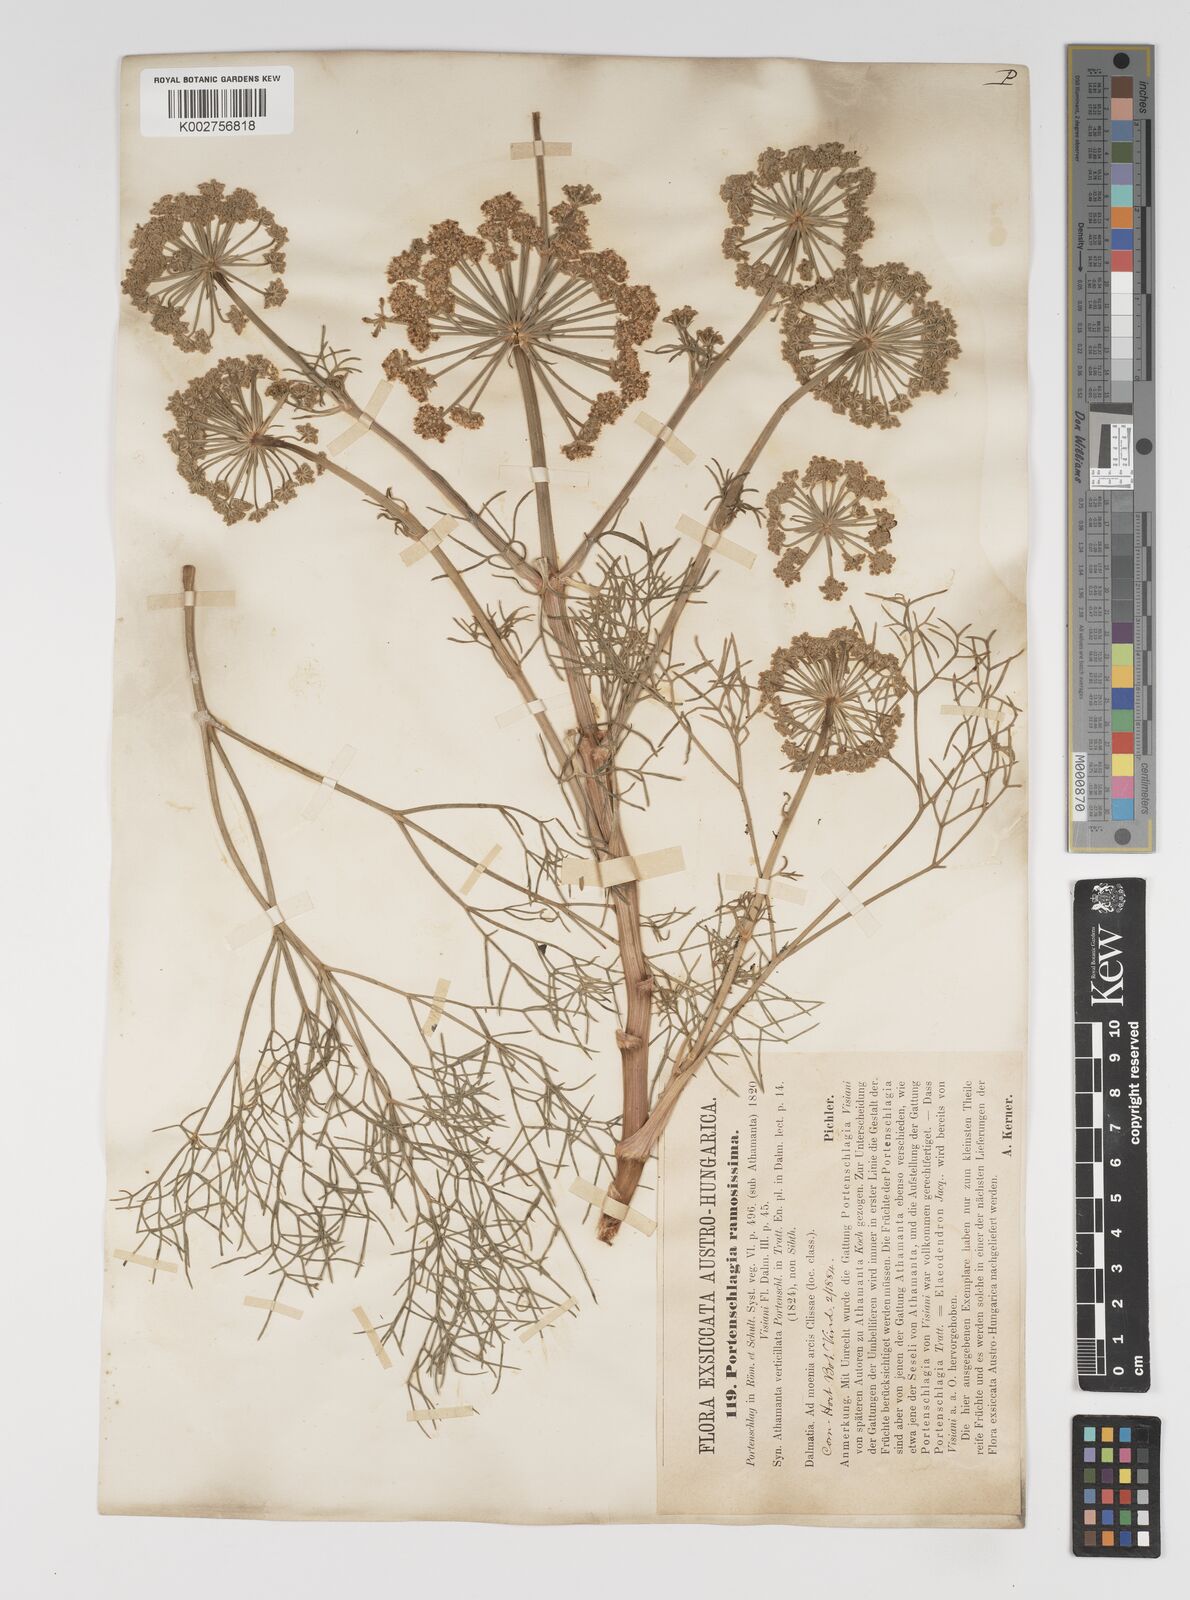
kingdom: Plantae
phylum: Tracheophyta
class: Magnoliopsida
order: Apiales
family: Apiaceae
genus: Athamanta
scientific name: Athamanta ramosissima
